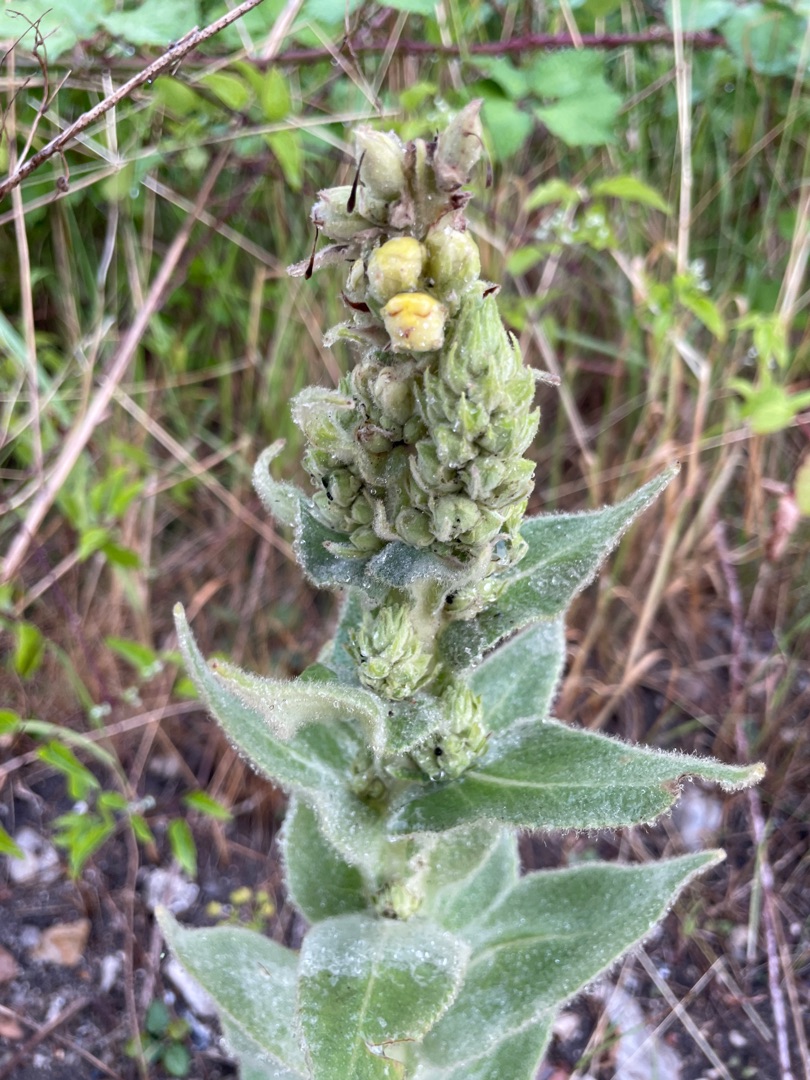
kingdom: Plantae
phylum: Tracheophyta
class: Magnoliopsida
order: Lamiales
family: Scrophulariaceae
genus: Verbascum
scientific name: Verbascum densiflorum
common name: Uldbladet kongelys
